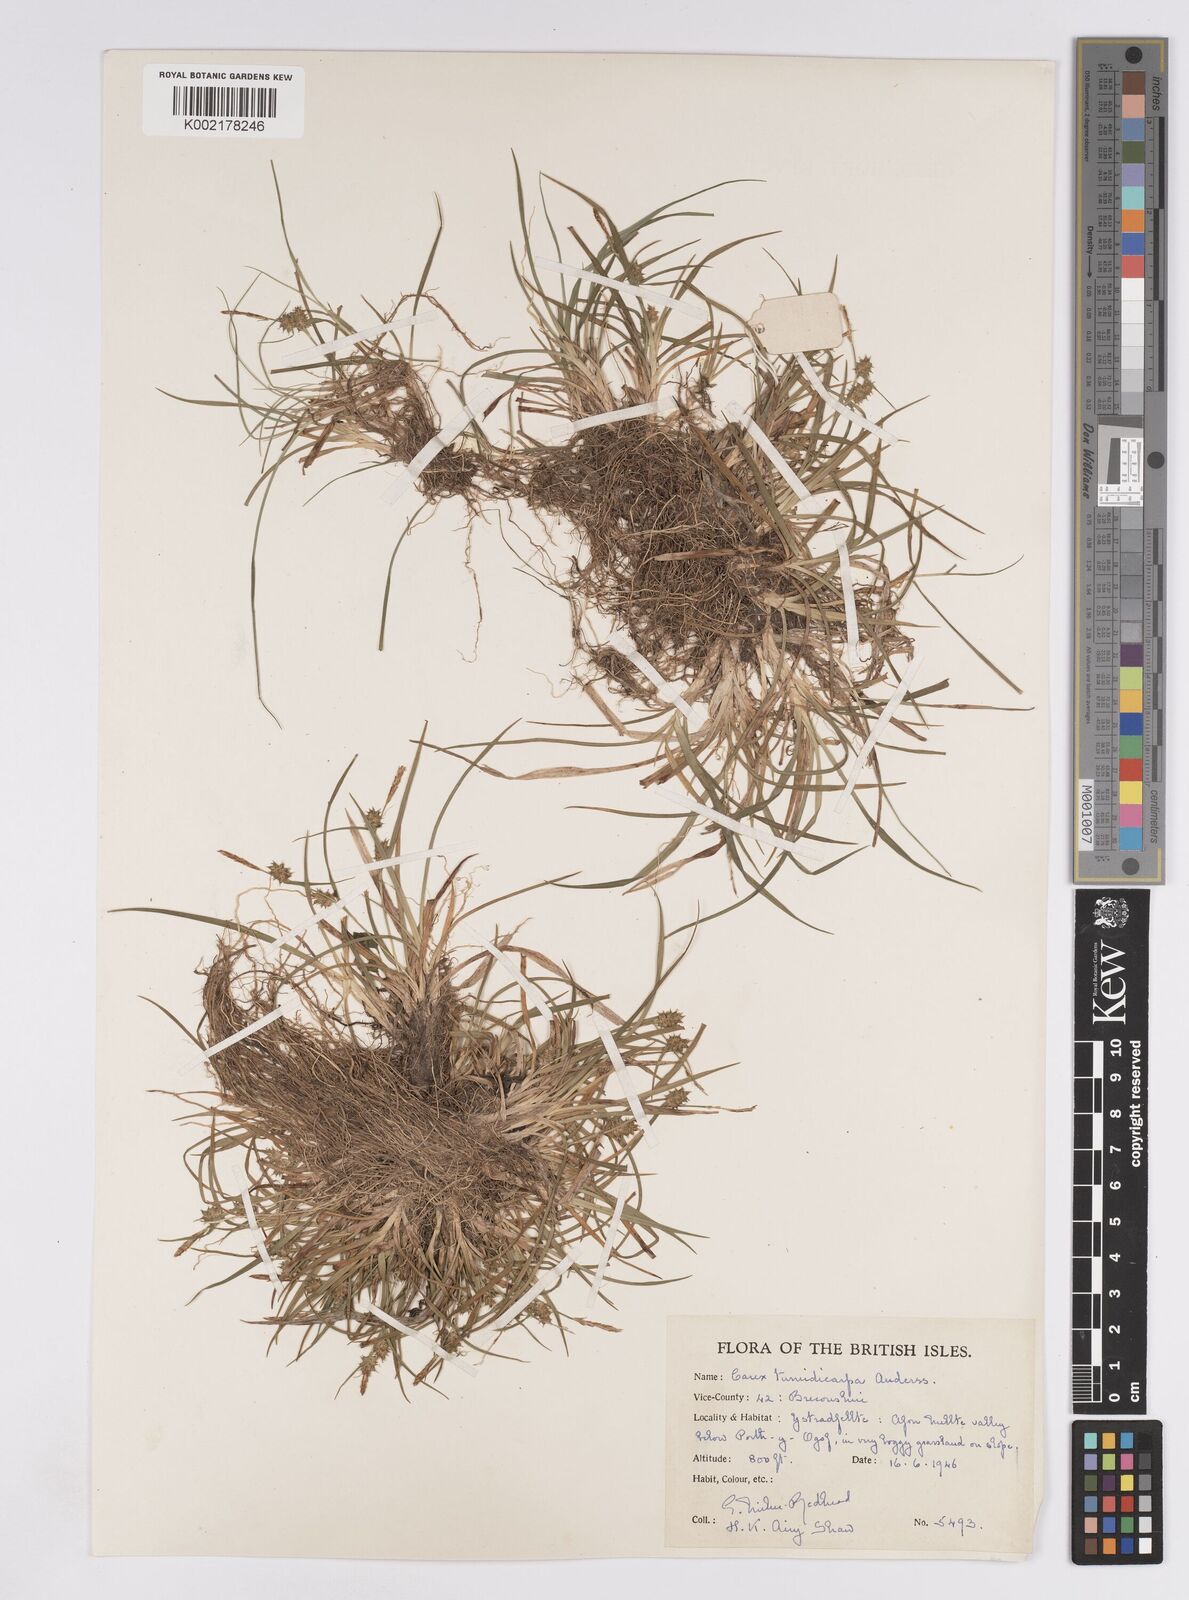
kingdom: Plantae
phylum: Tracheophyta
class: Liliopsida
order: Poales
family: Cyperaceae
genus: Carex
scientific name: Carex demissa
